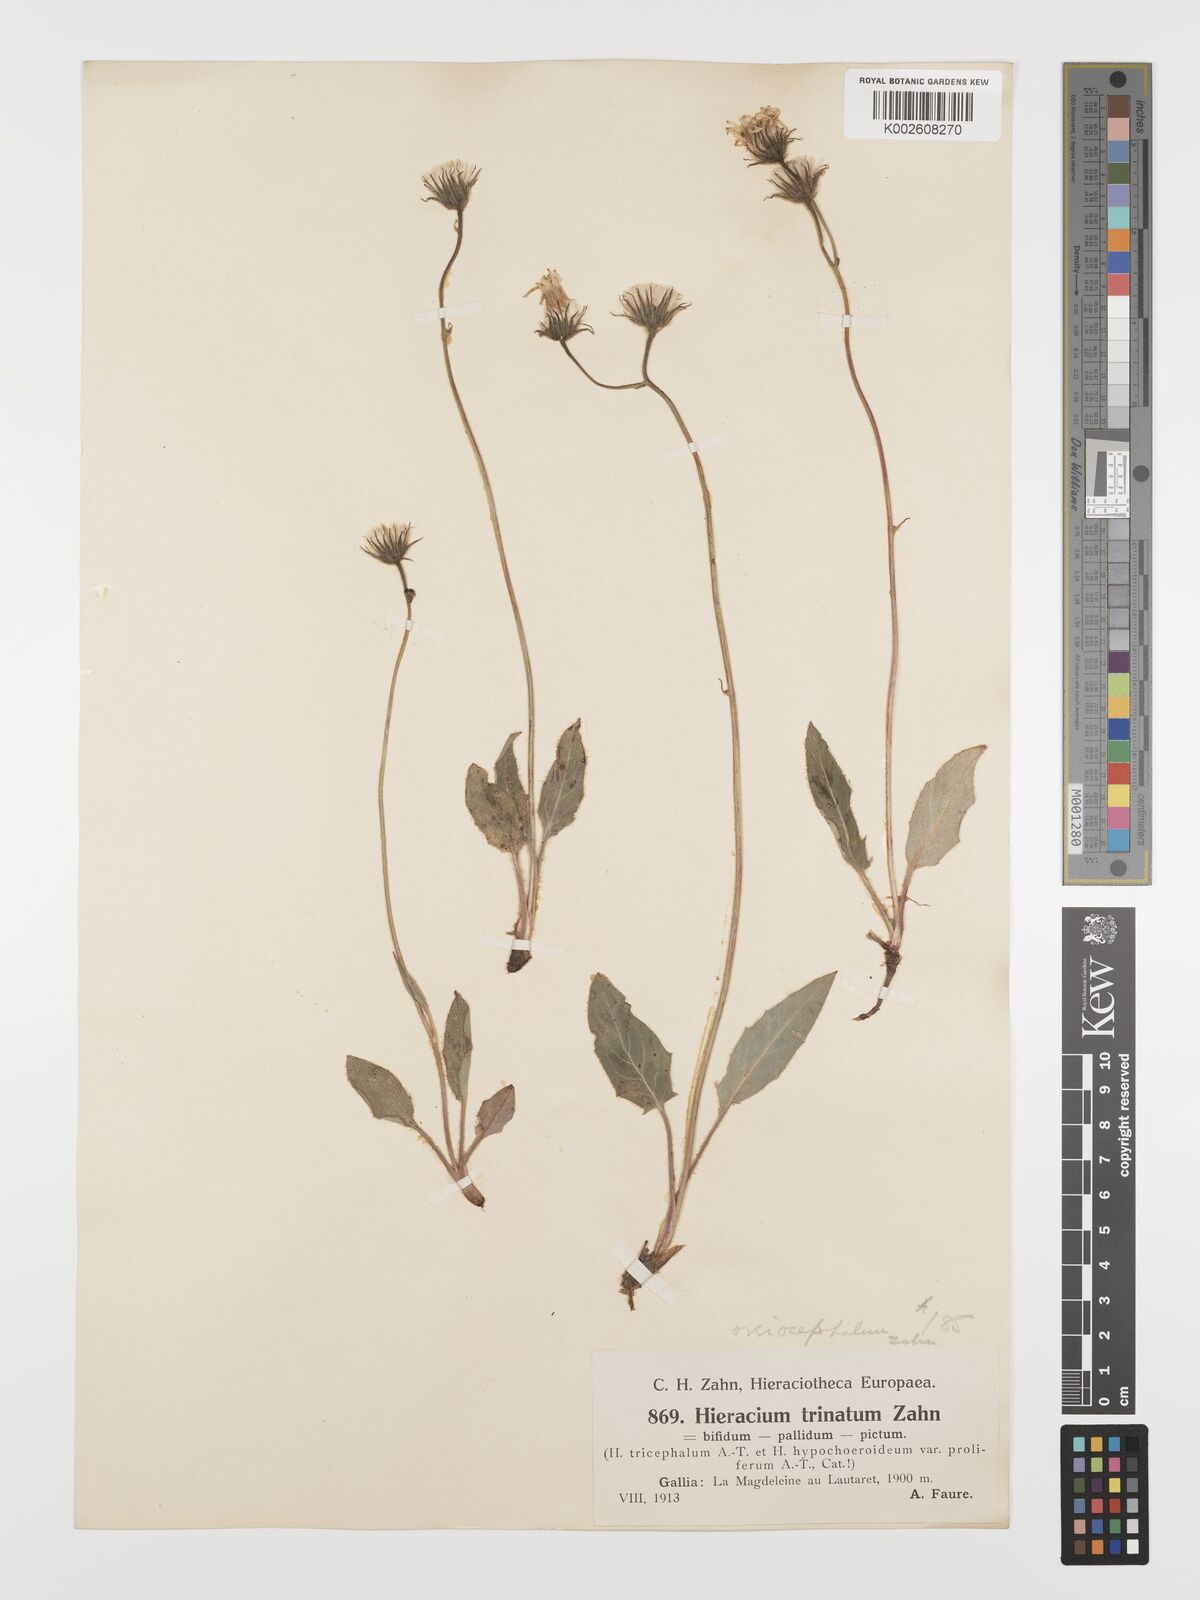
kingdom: Plantae
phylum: Tracheophyta
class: Magnoliopsida
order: Asterales
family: Asteraceae
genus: Hieracium
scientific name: Hieracium oreiocephalum
